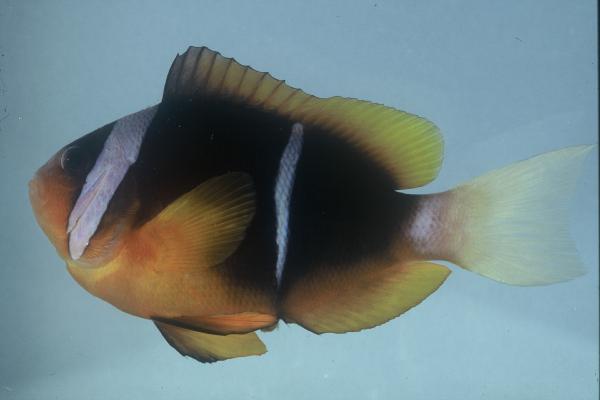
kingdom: Animalia
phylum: Chordata
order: Perciformes
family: Pomacentridae
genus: Amphiprion
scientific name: Amphiprion allardi
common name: Allard's anemonefish
